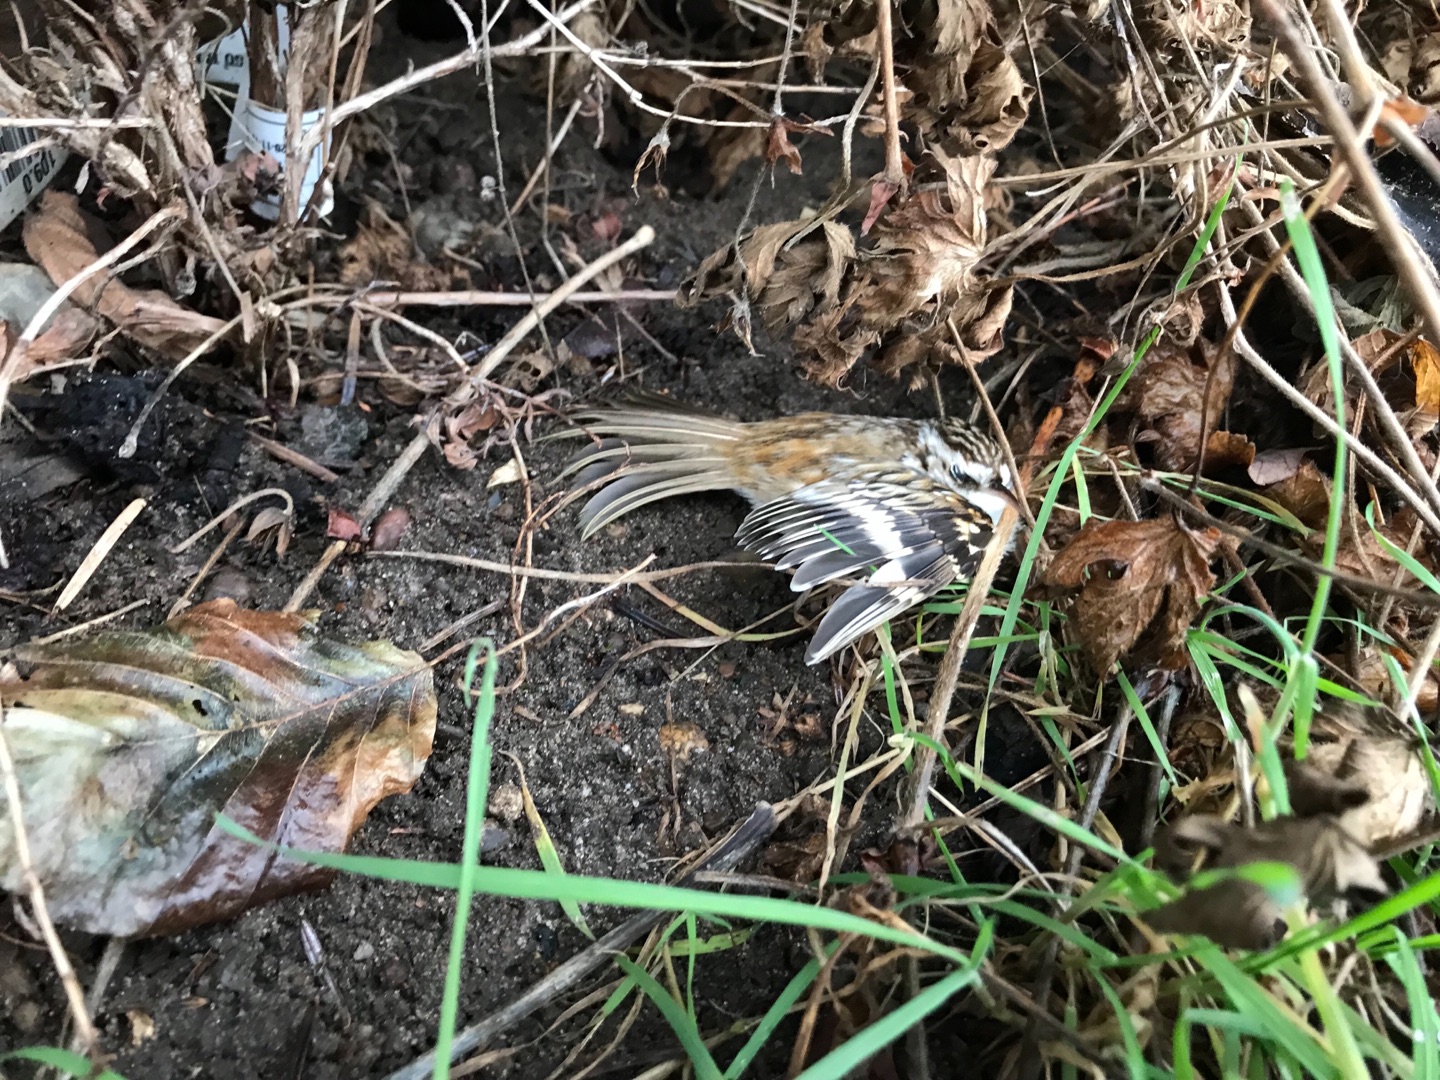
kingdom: Animalia
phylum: Chordata
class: Aves
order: Passeriformes
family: Certhiidae
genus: Certhia
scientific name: Certhia familiaris
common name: Træløber
